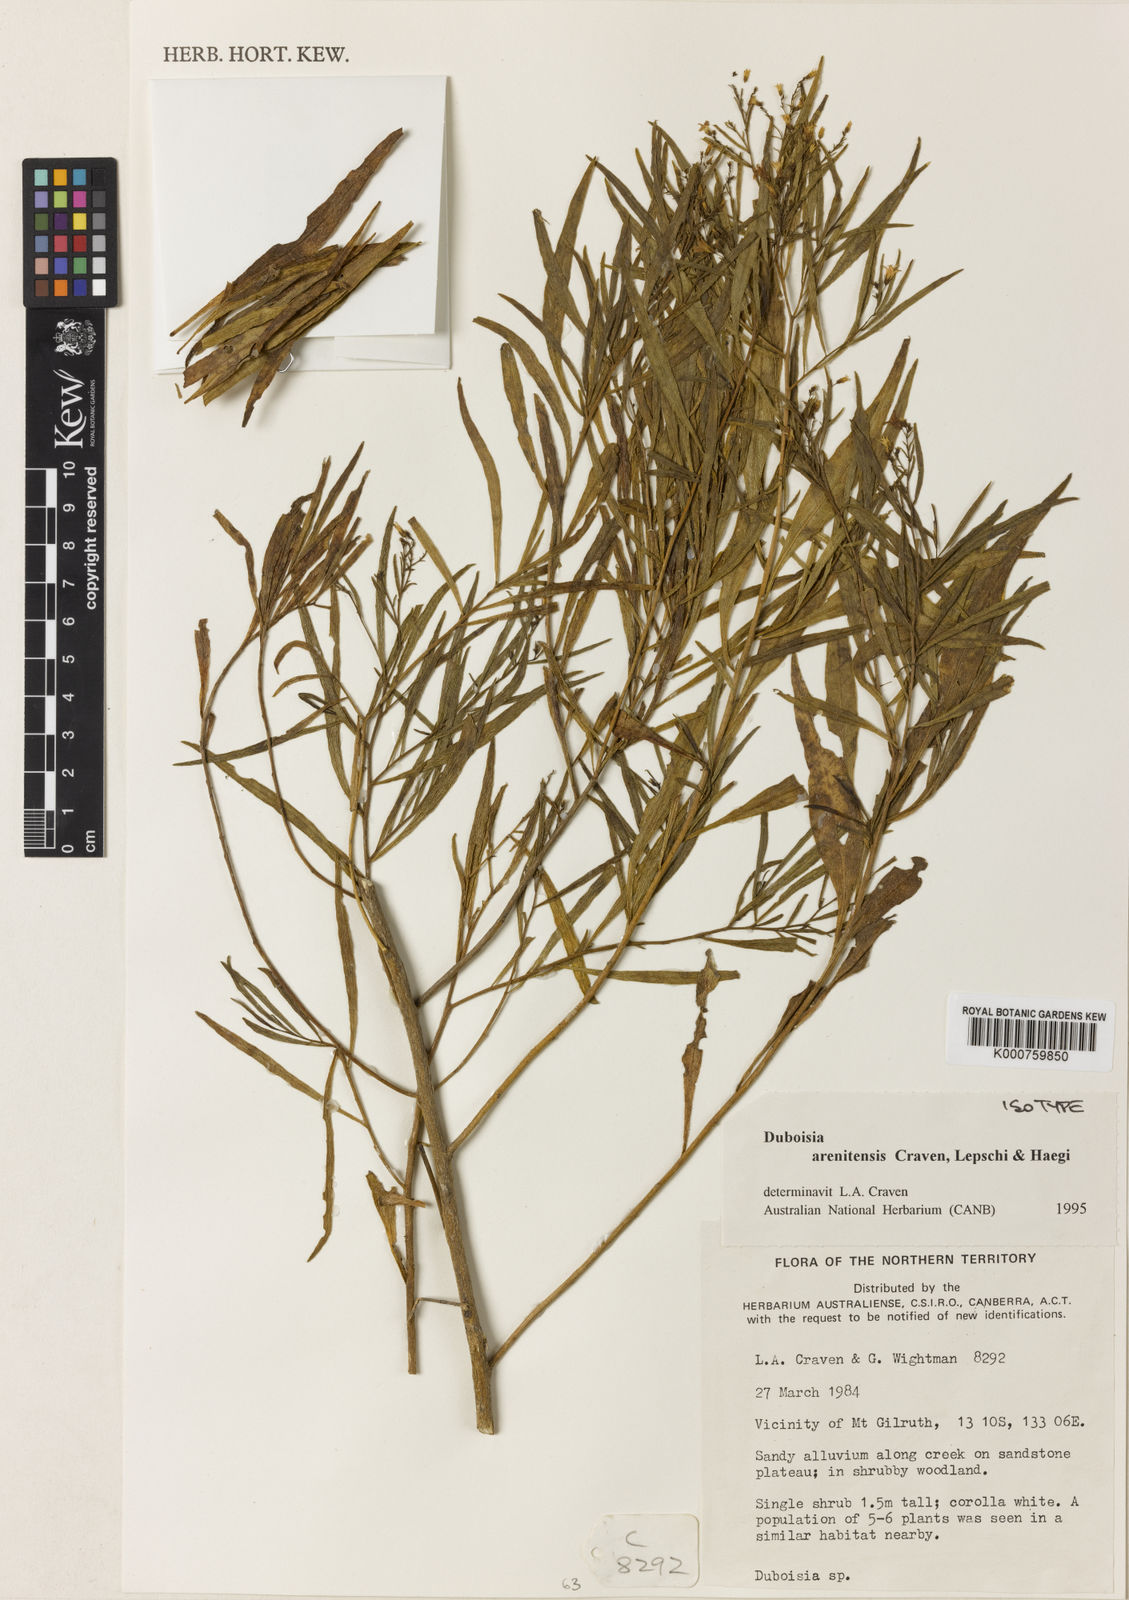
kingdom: Plantae
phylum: Tracheophyta
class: Magnoliopsida
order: Solanales
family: Solanaceae
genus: Duboisia
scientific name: Duboisia arenitensis
